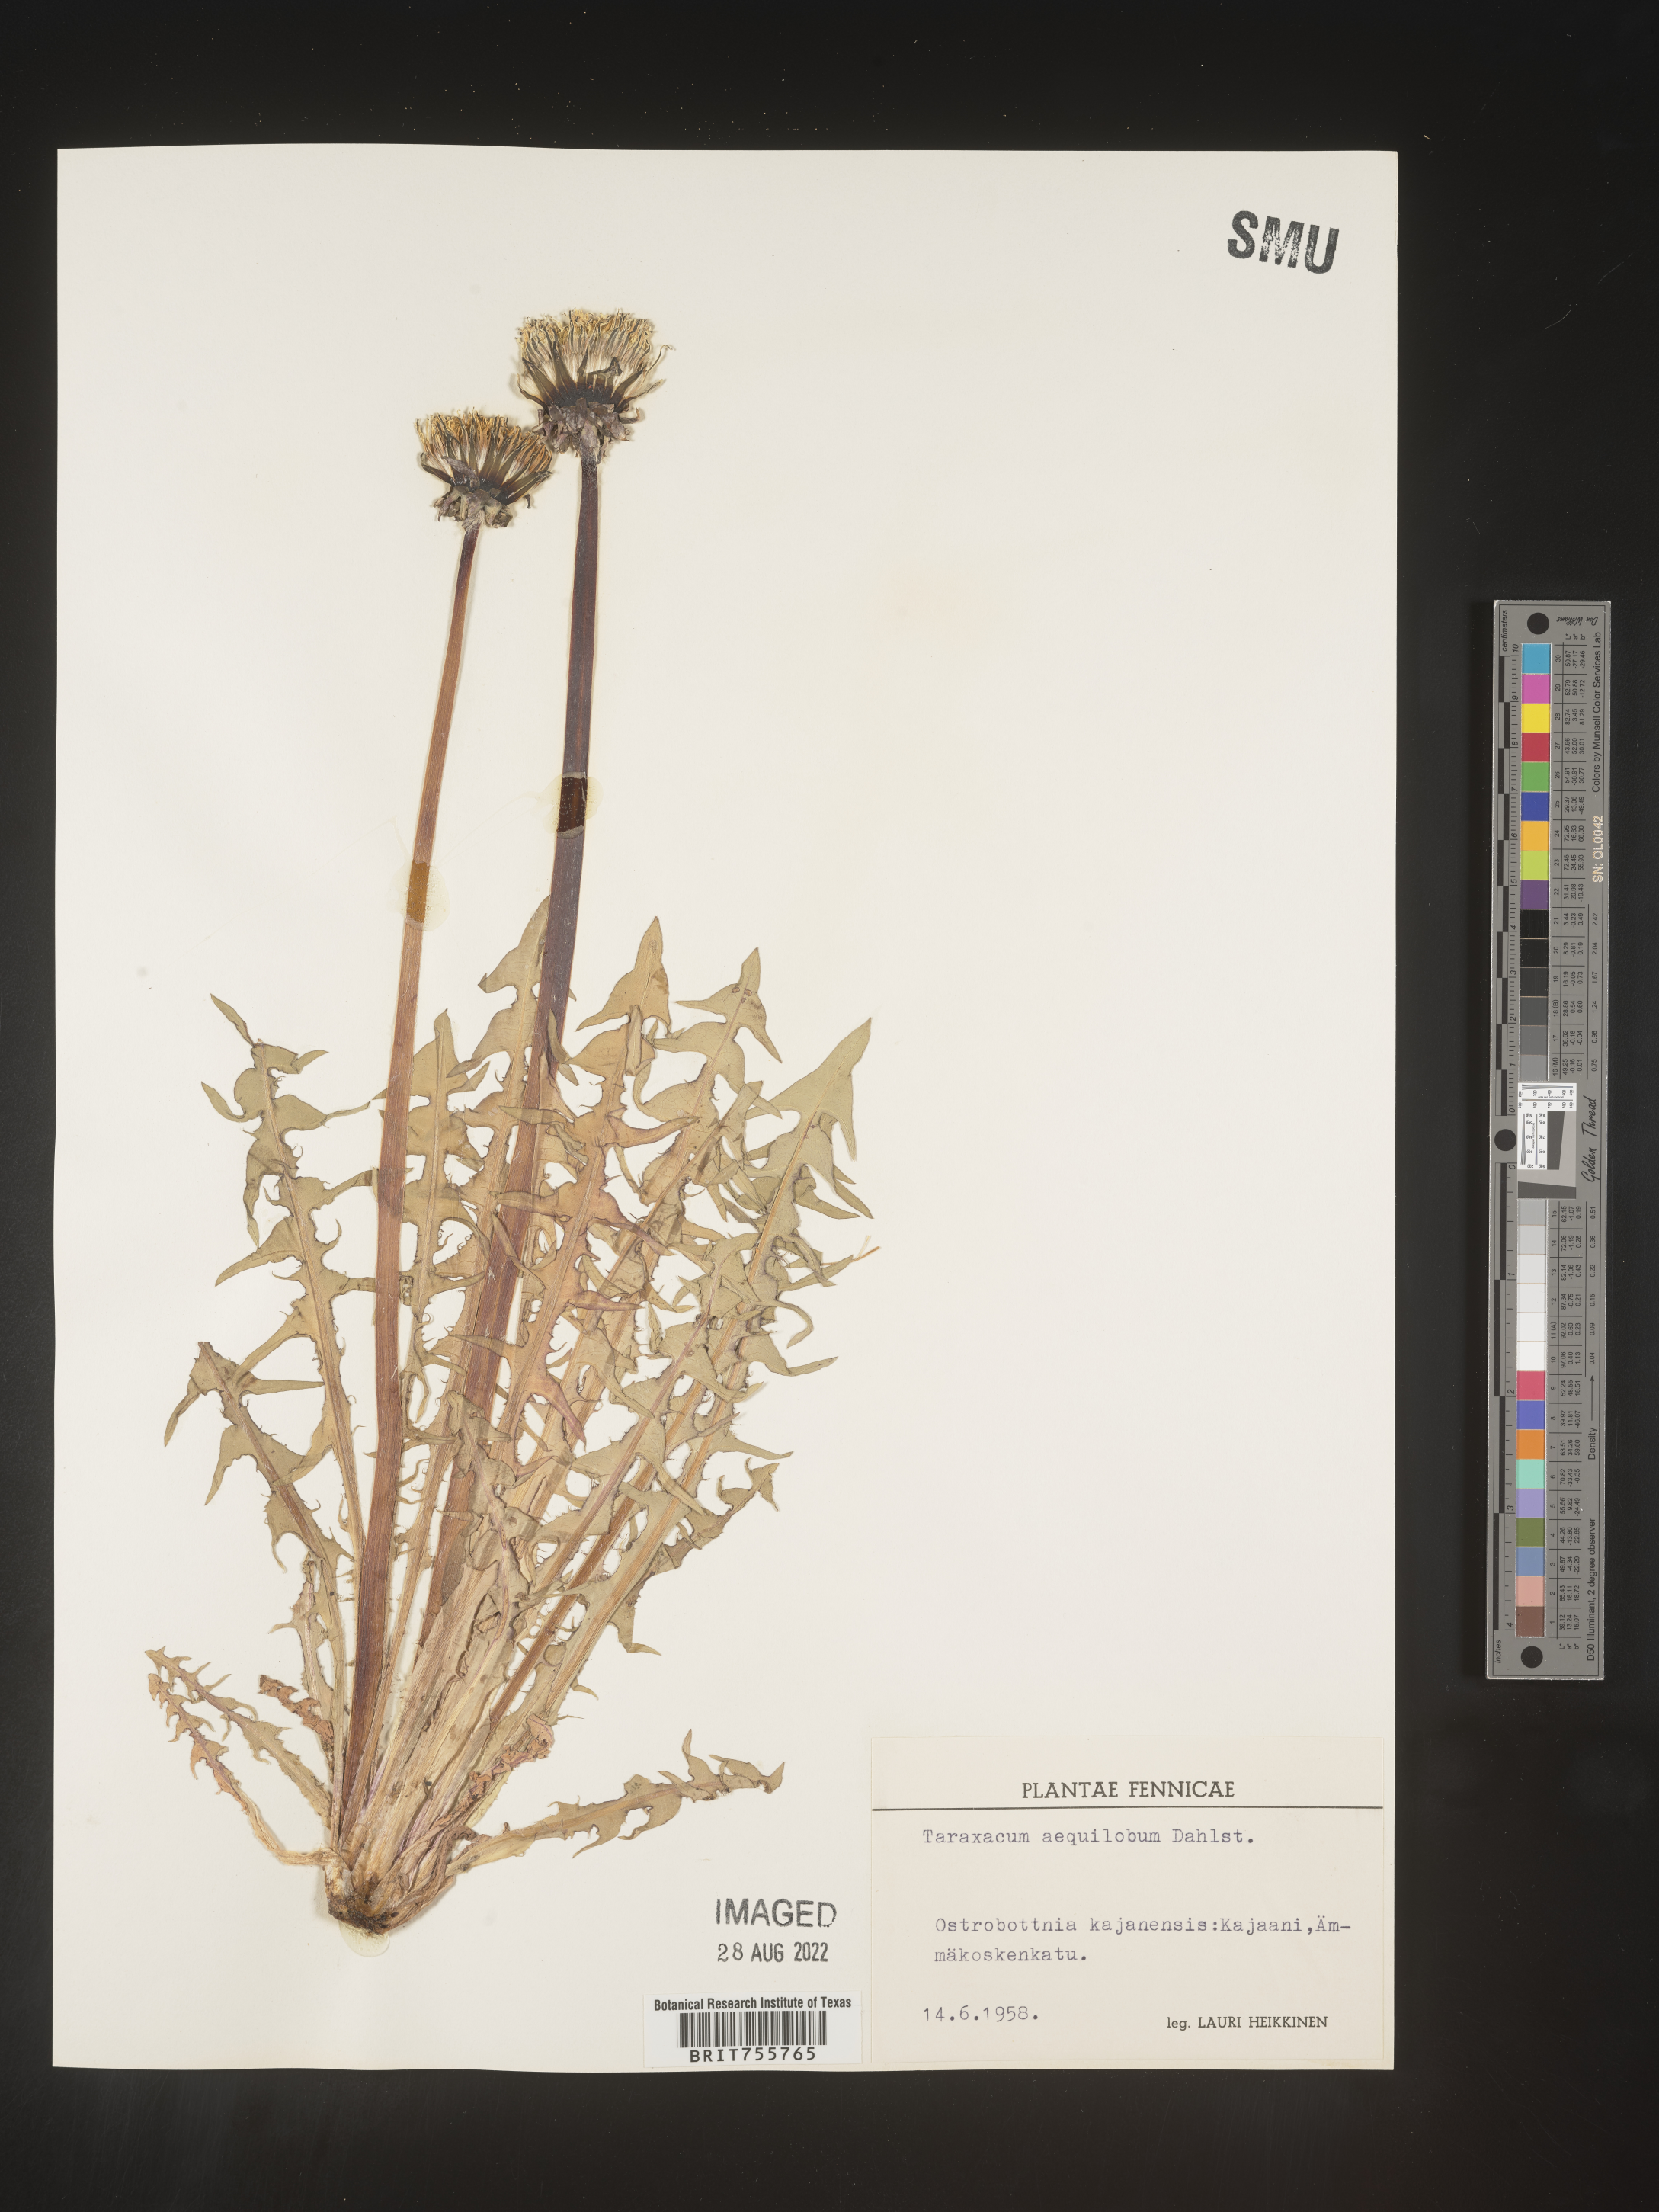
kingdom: Plantae
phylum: Tracheophyta
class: Magnoliopsida
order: Asterales
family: Asteraceae
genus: Taraxacum
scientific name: Taraxacum
